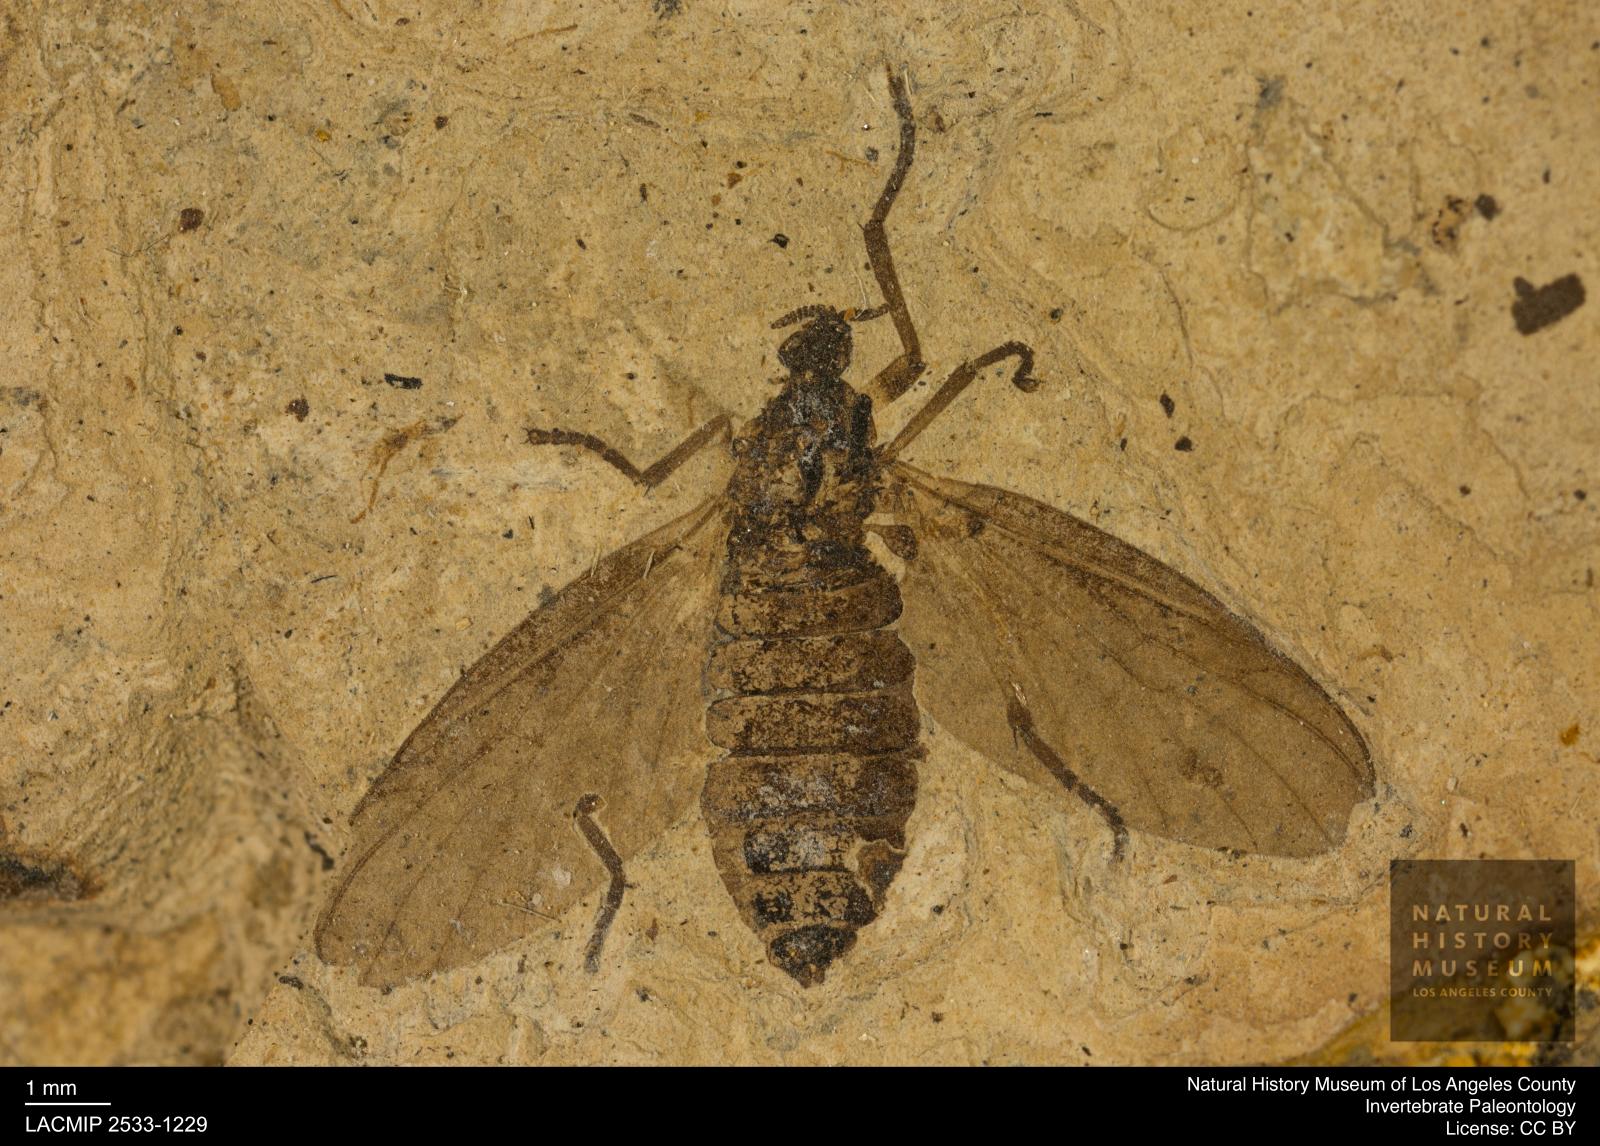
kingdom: Animalia
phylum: Arthropoda
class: Insecta
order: Diptera
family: Bibionidae
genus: Plecia
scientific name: Plecia grossa
